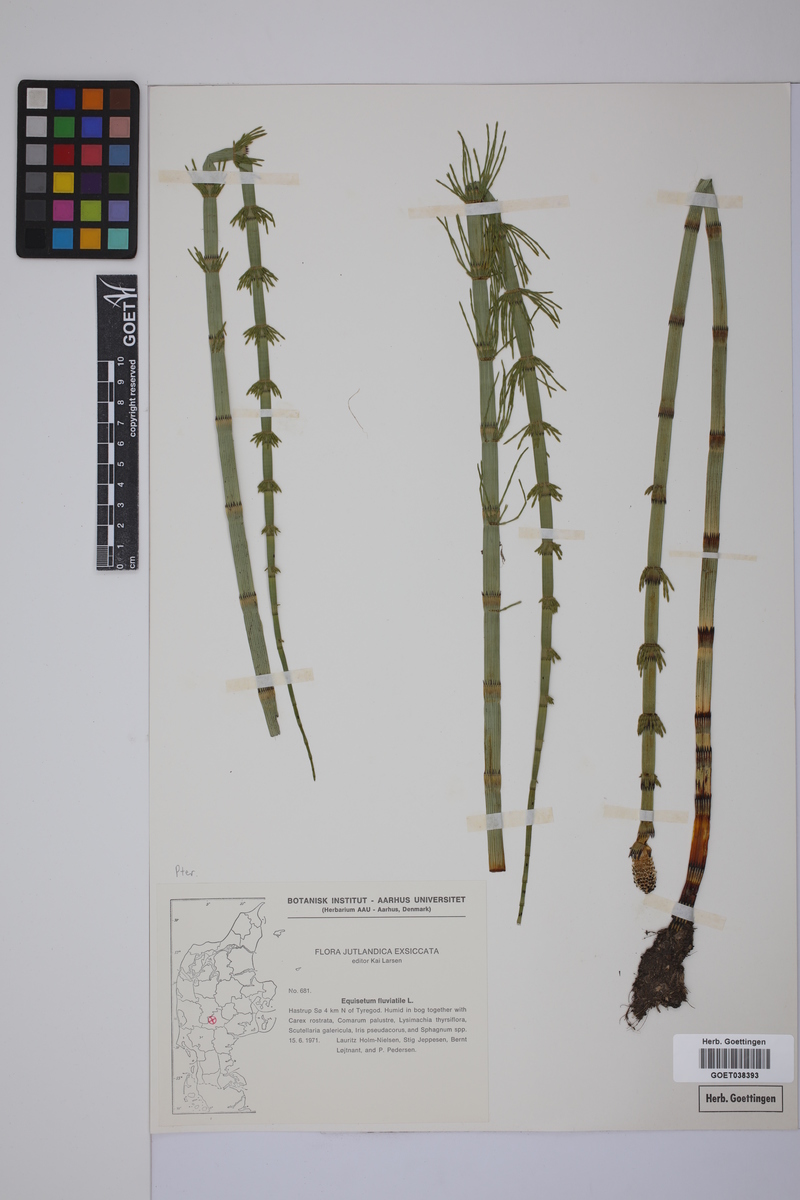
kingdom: Plantae
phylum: Tracheophyta
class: Polypodiopsida
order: Equisetales
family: Equisetaceae
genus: Equisetum
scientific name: Equisetum fluviatile
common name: Water horsetail
